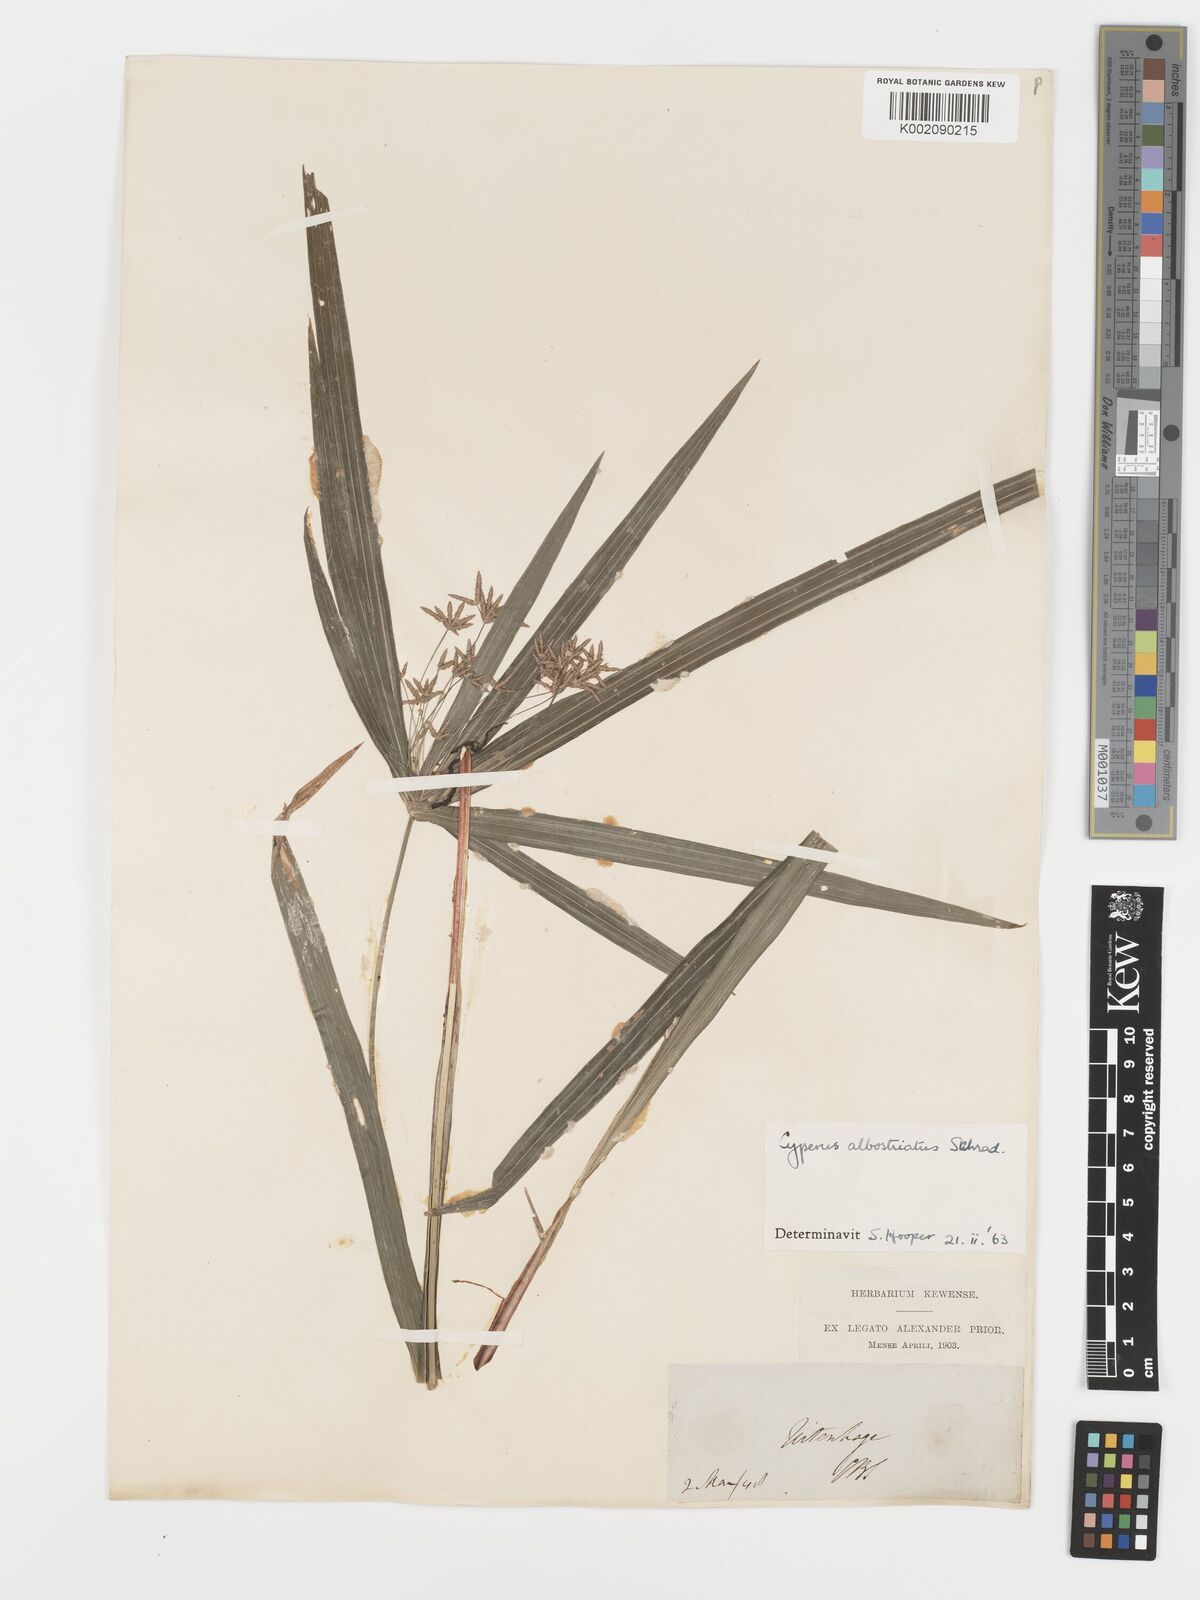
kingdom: Plantae
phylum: Tracheophyta
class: Liliopsida
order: Poales
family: Cyperaceae
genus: Cyperus
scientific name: Cyperus albostriatus
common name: Dwarf umbrella-grass
